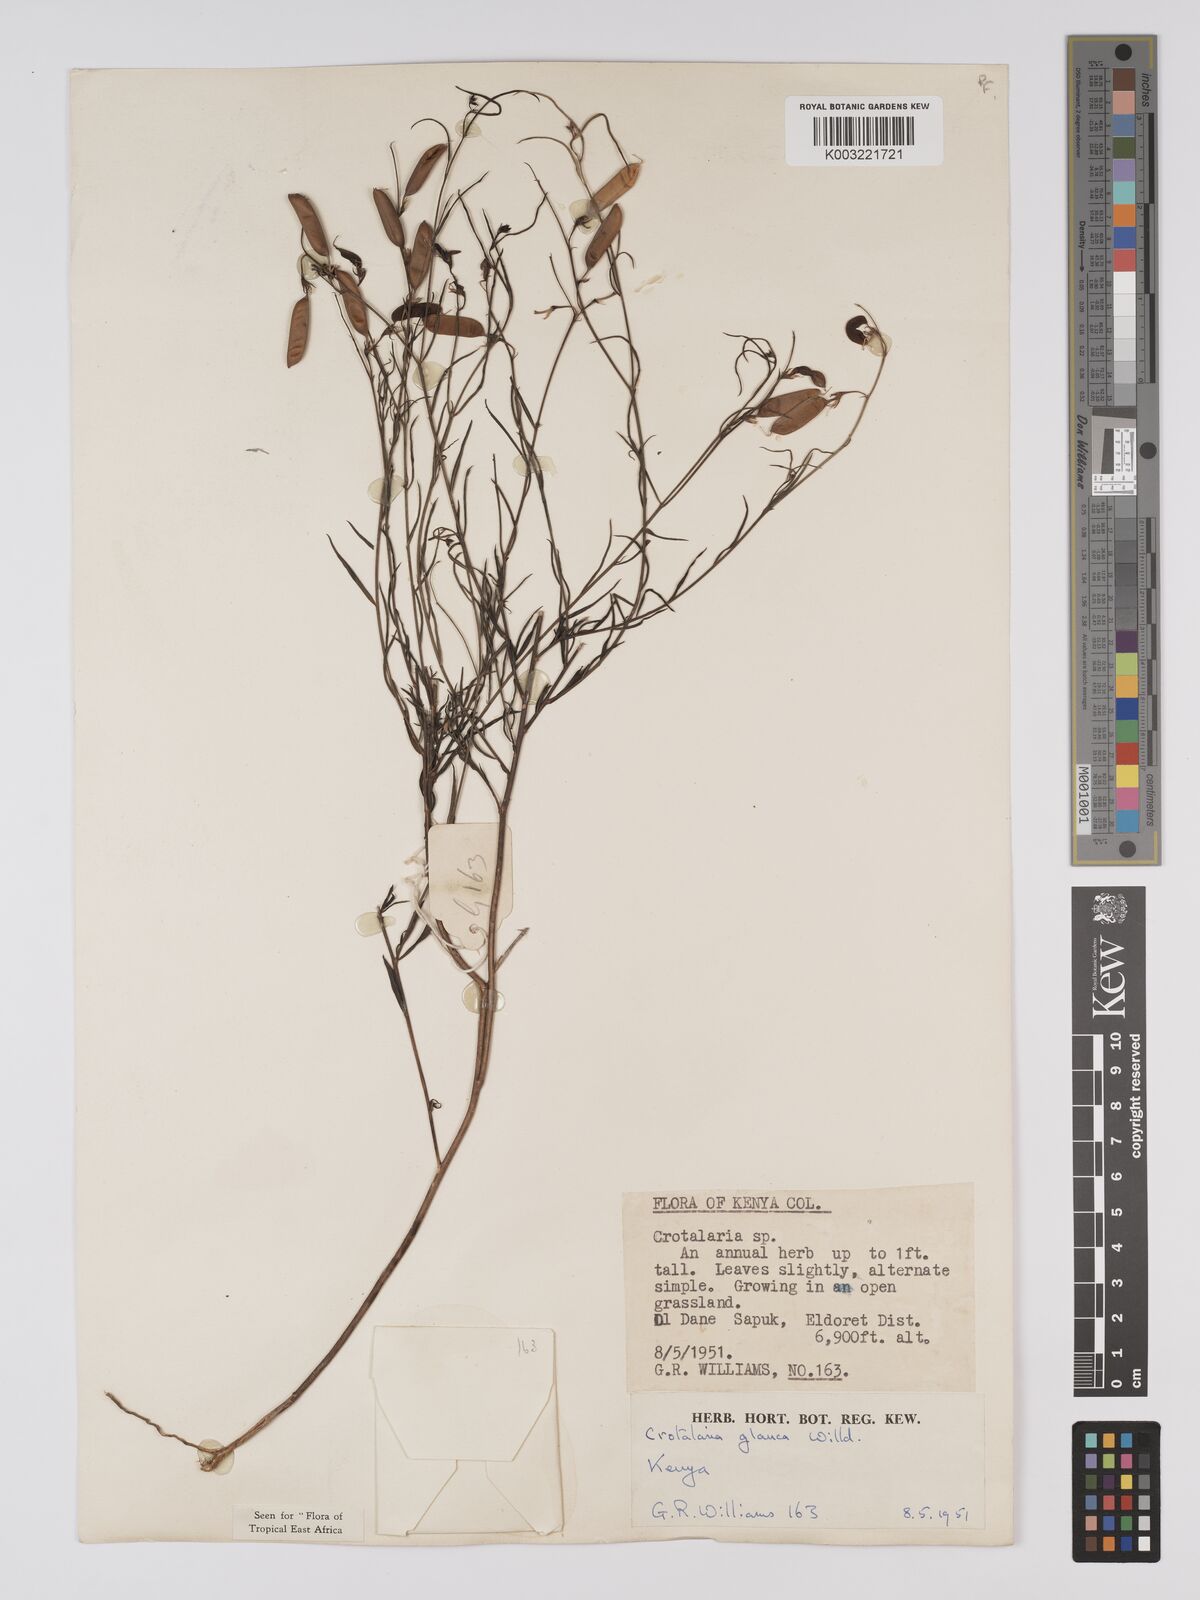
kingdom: Plantae
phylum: Tracheophyta
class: Magnoliopsida
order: Fabales
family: Fabaceae
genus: Crotalaria
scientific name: Crotalaria glauca
